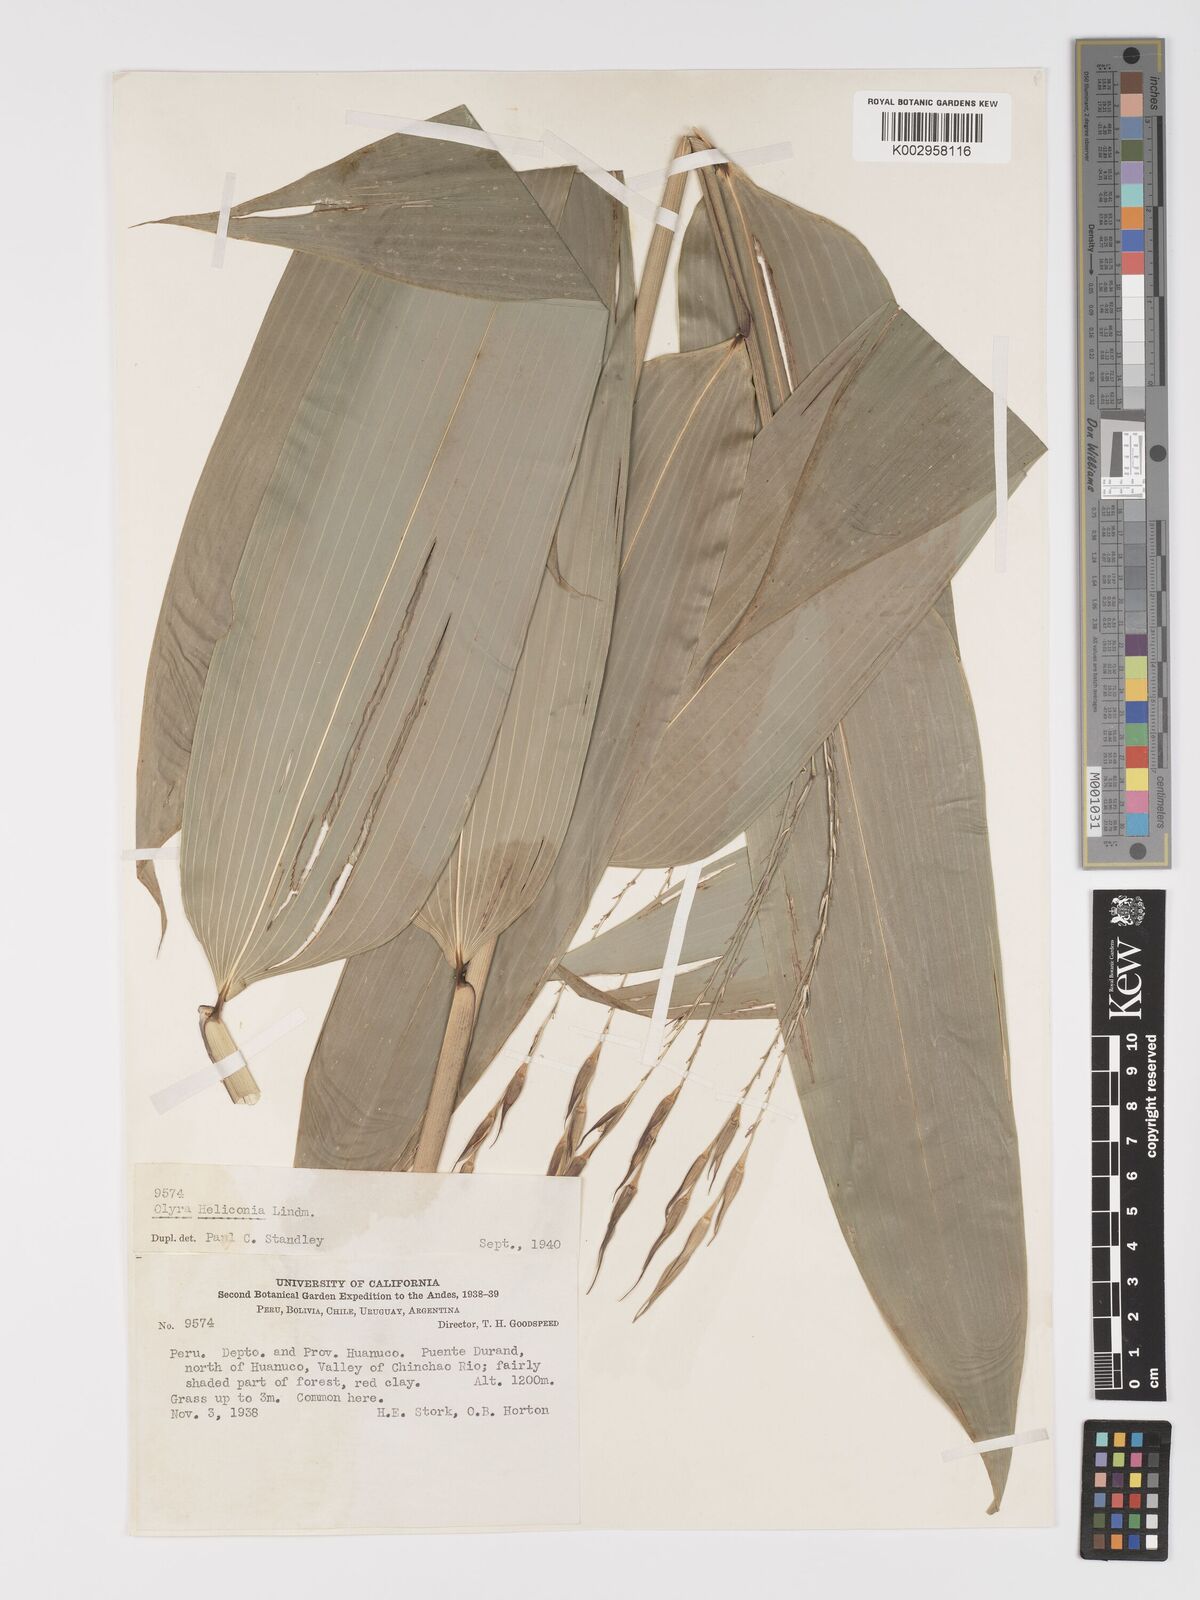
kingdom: Plantae
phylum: Tracheophyta
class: Liliopsida
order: Poales
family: Poaceae
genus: Olyra
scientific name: Olyra fasciculata
